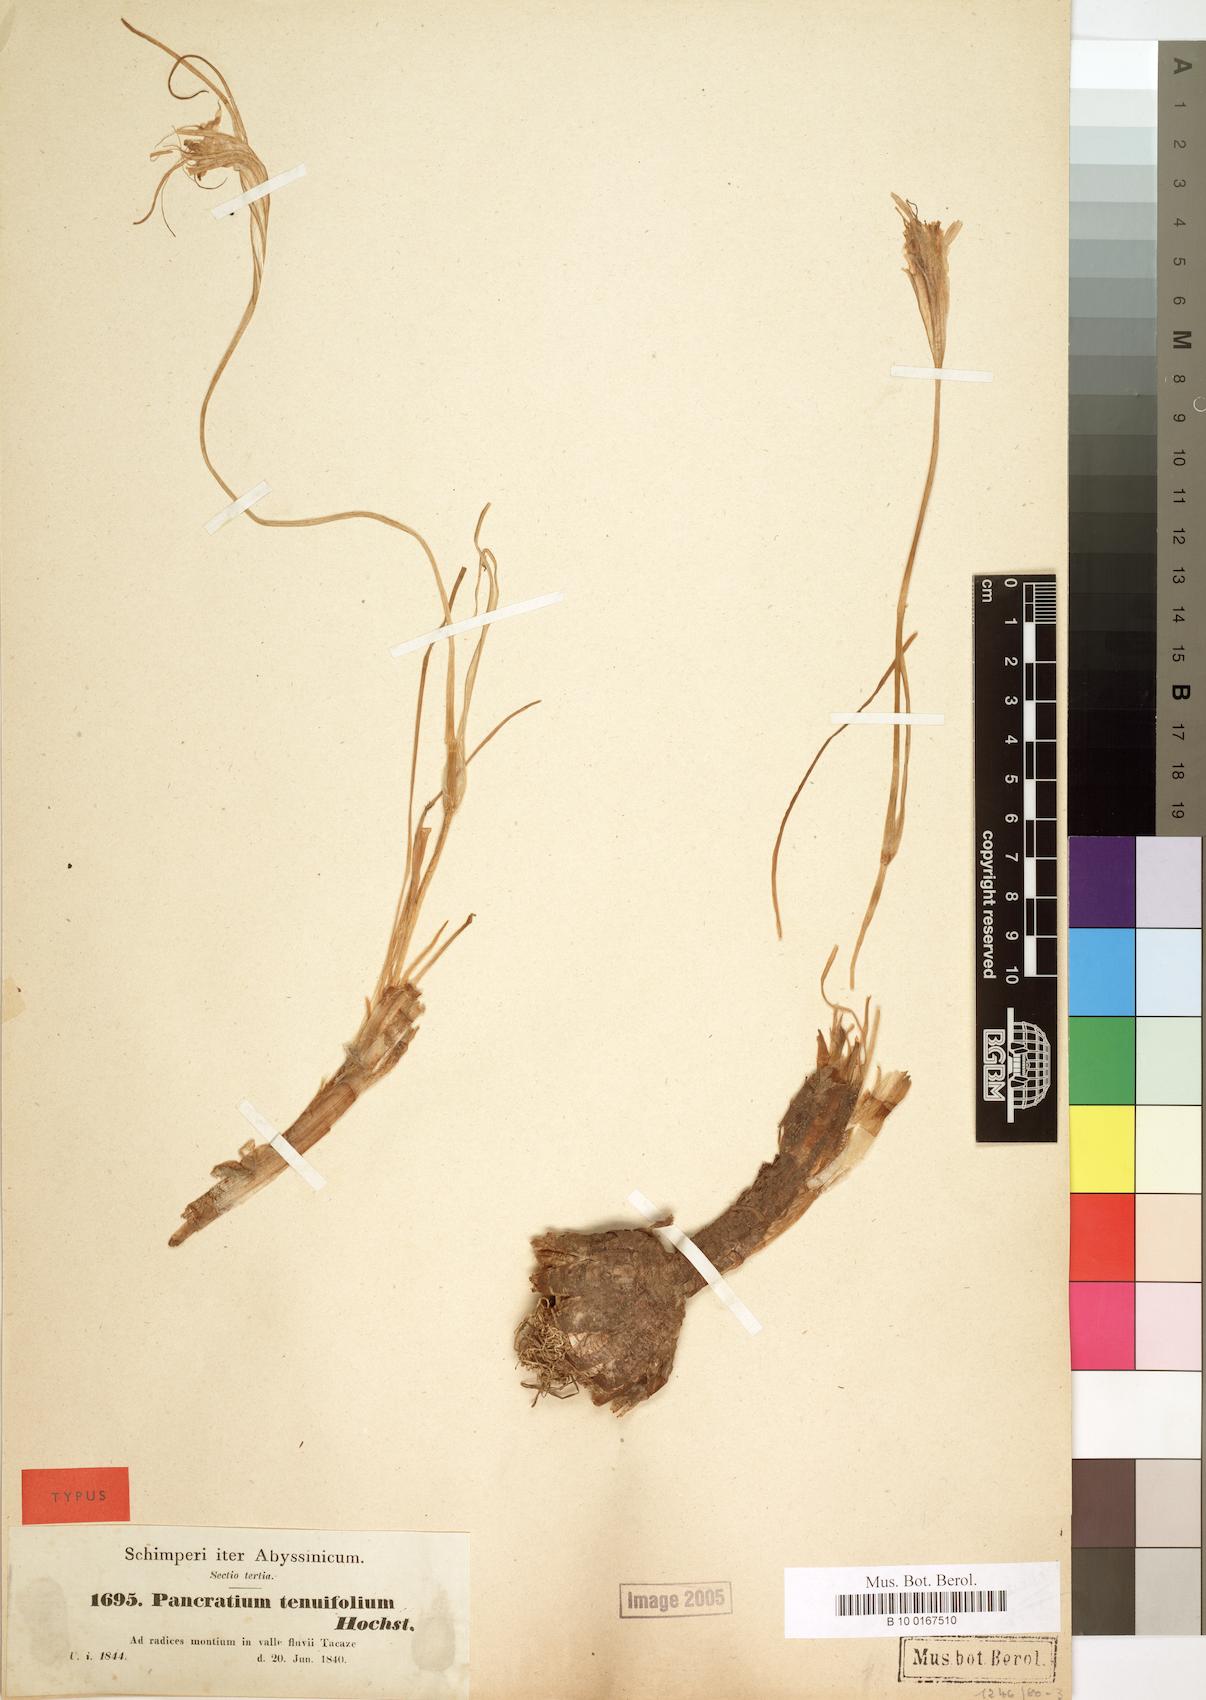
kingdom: Plantae
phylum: Tracheophyta
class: Liliopsida
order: Asparagales
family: Amaryllidaceae
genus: Pancratium
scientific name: Pancratium tenuifolium
